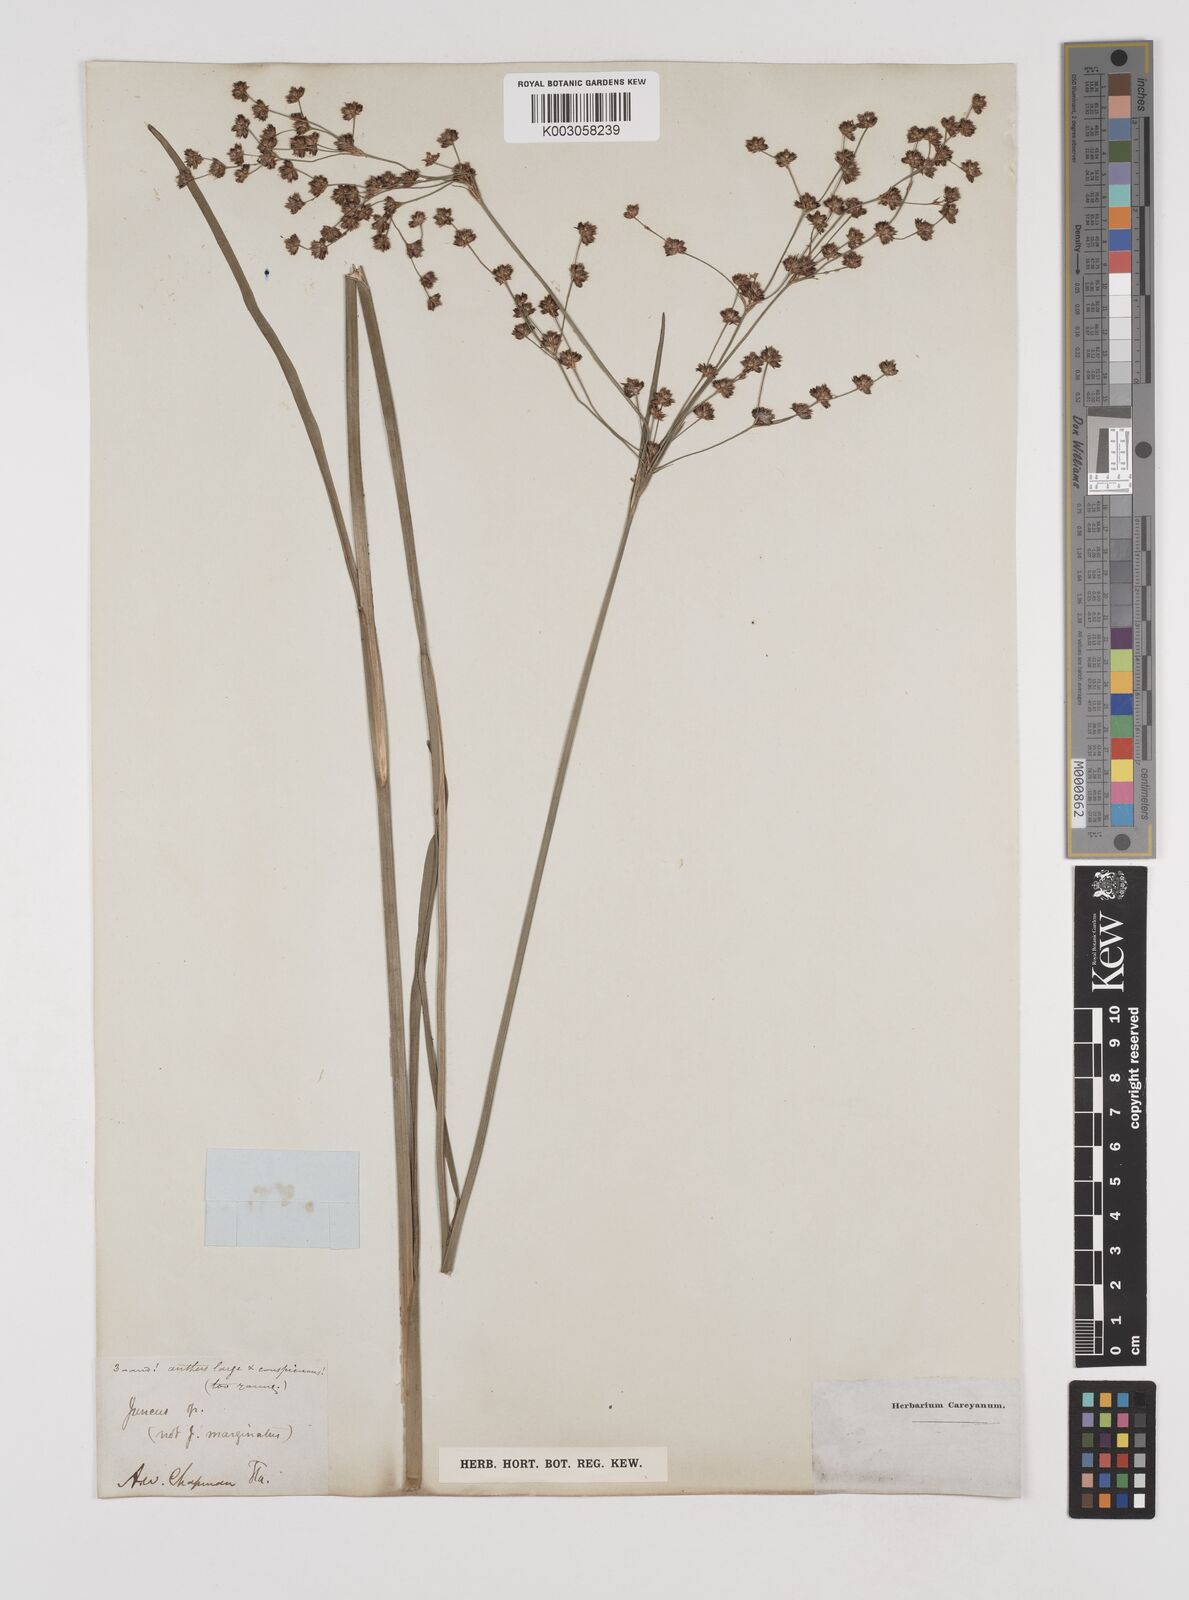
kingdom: Plantae
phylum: Tracheophyta
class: Liliopsida
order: Poales
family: Juncaceae
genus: Juncus
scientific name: Juncus
